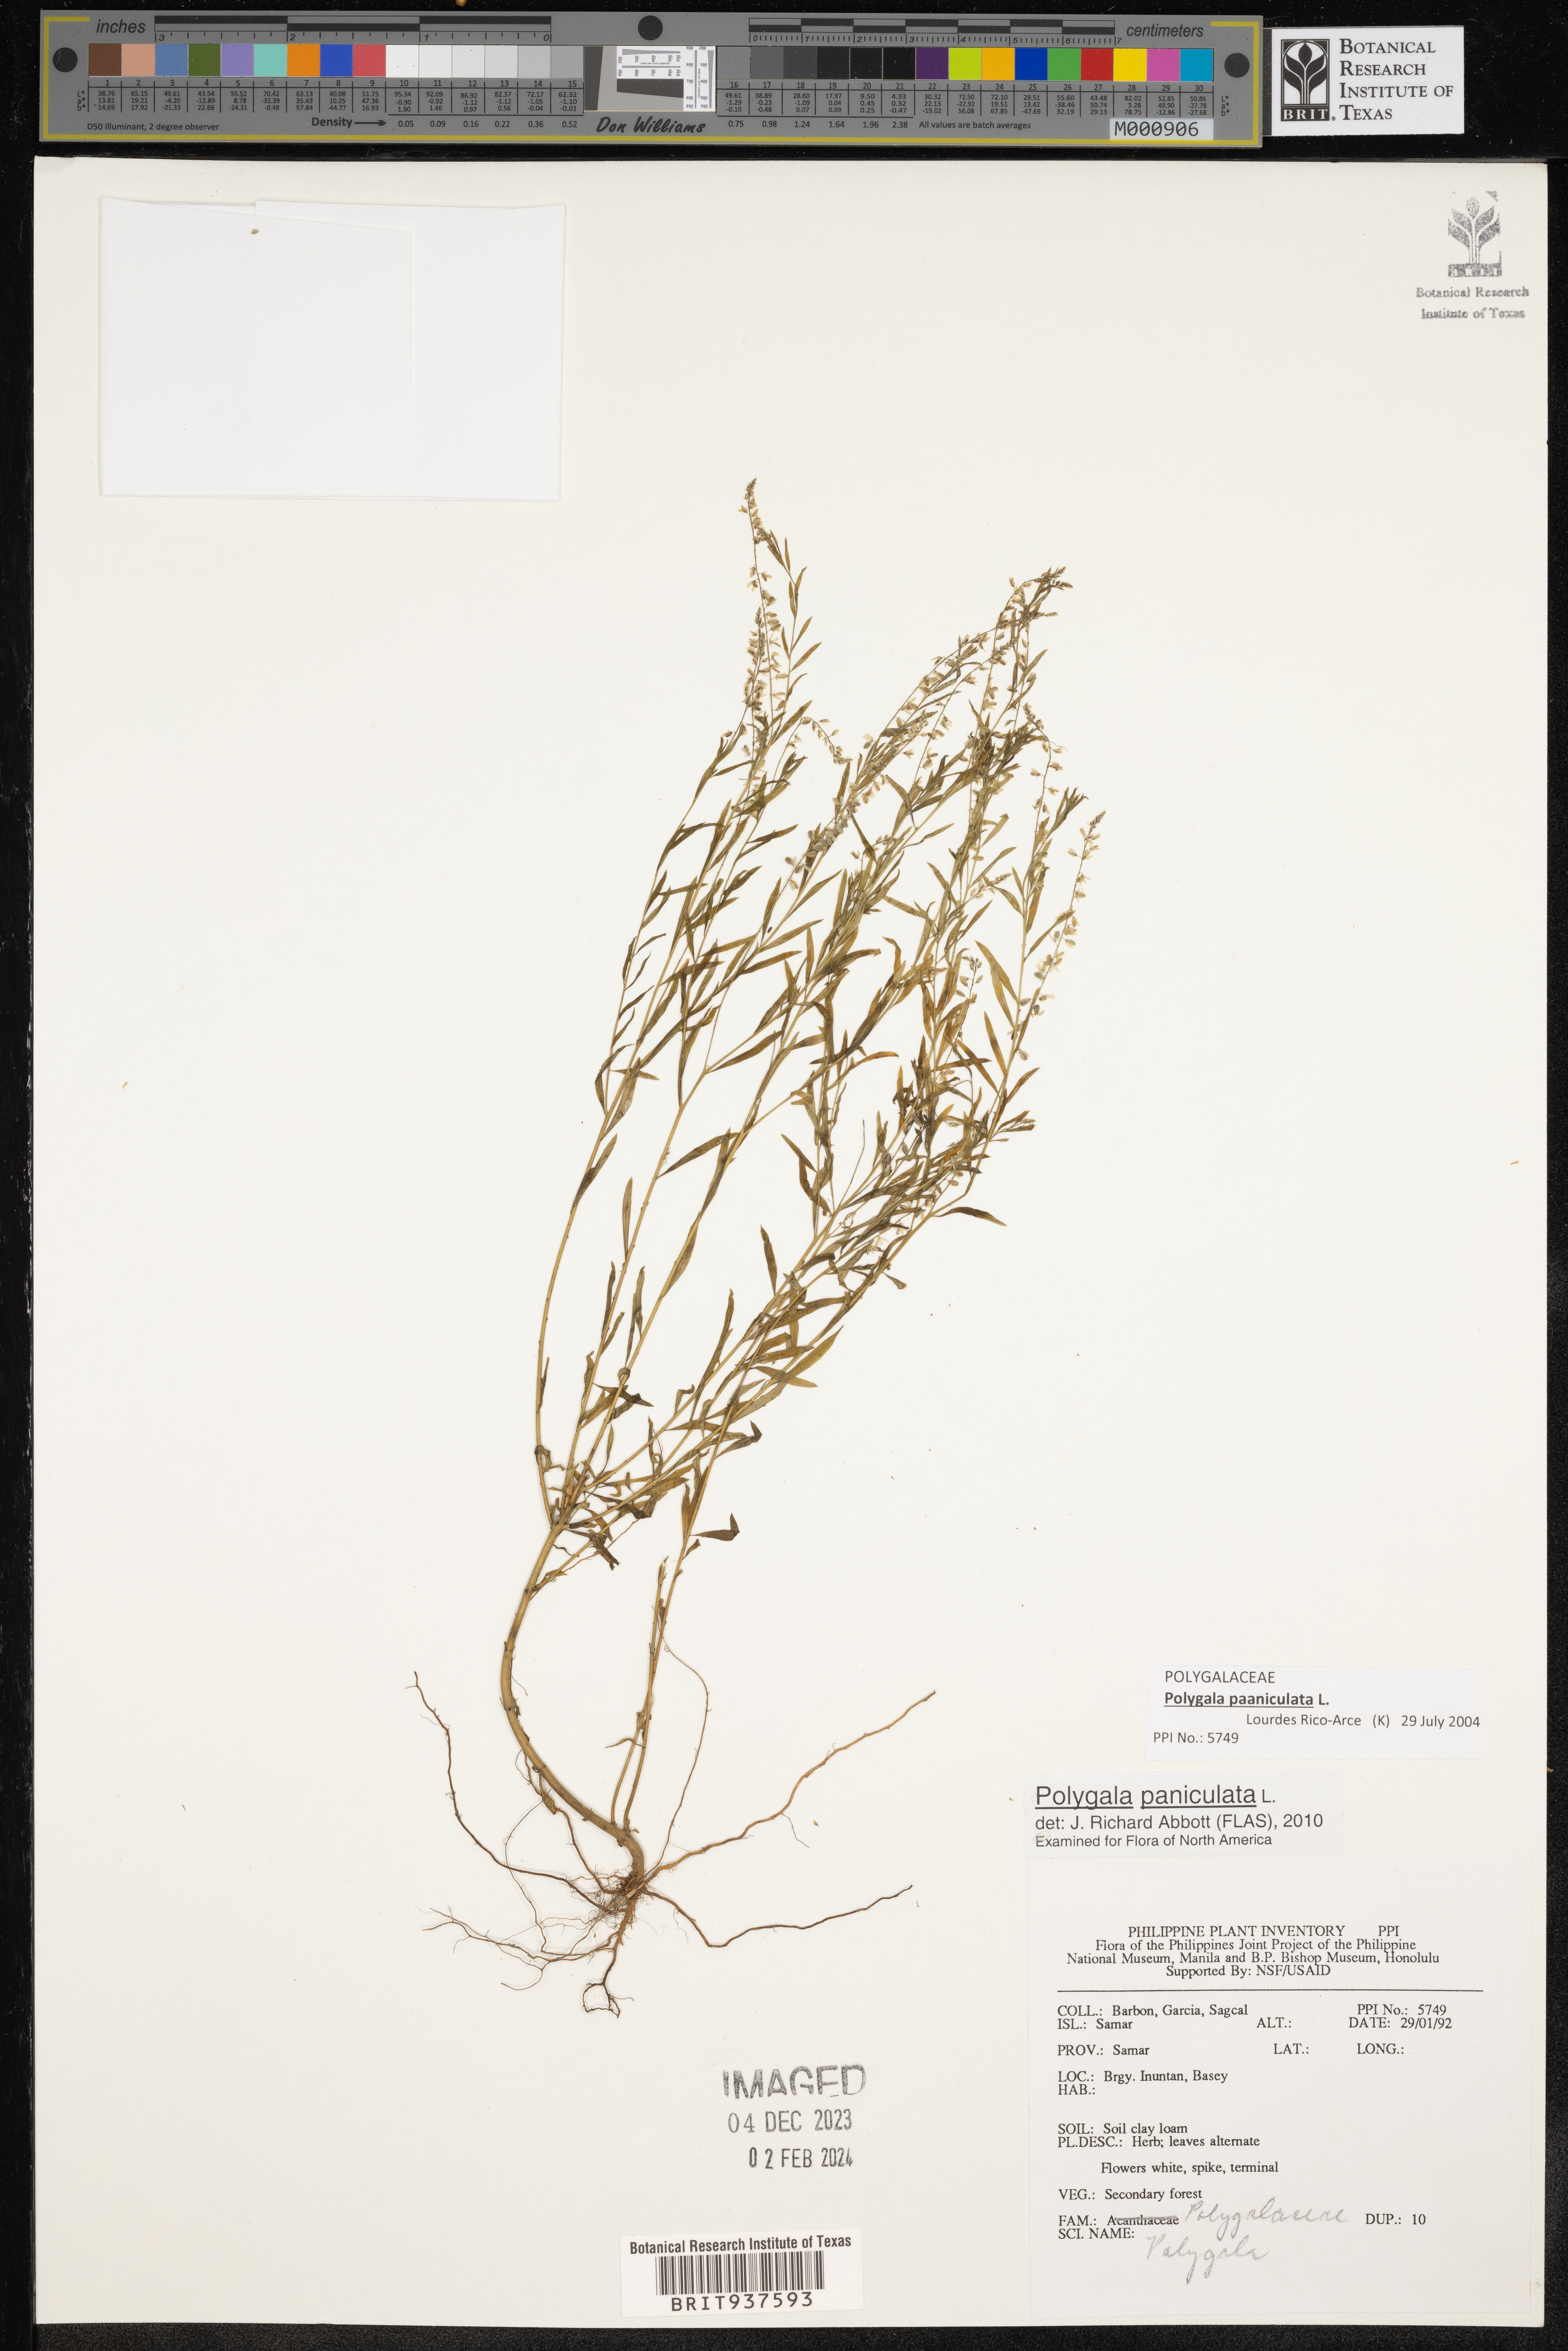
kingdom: Plantae
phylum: Tracheophyta
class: Magnoliopsida
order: Lamiales
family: Acanthaceae
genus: Adhatoda
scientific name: Adhatoda
